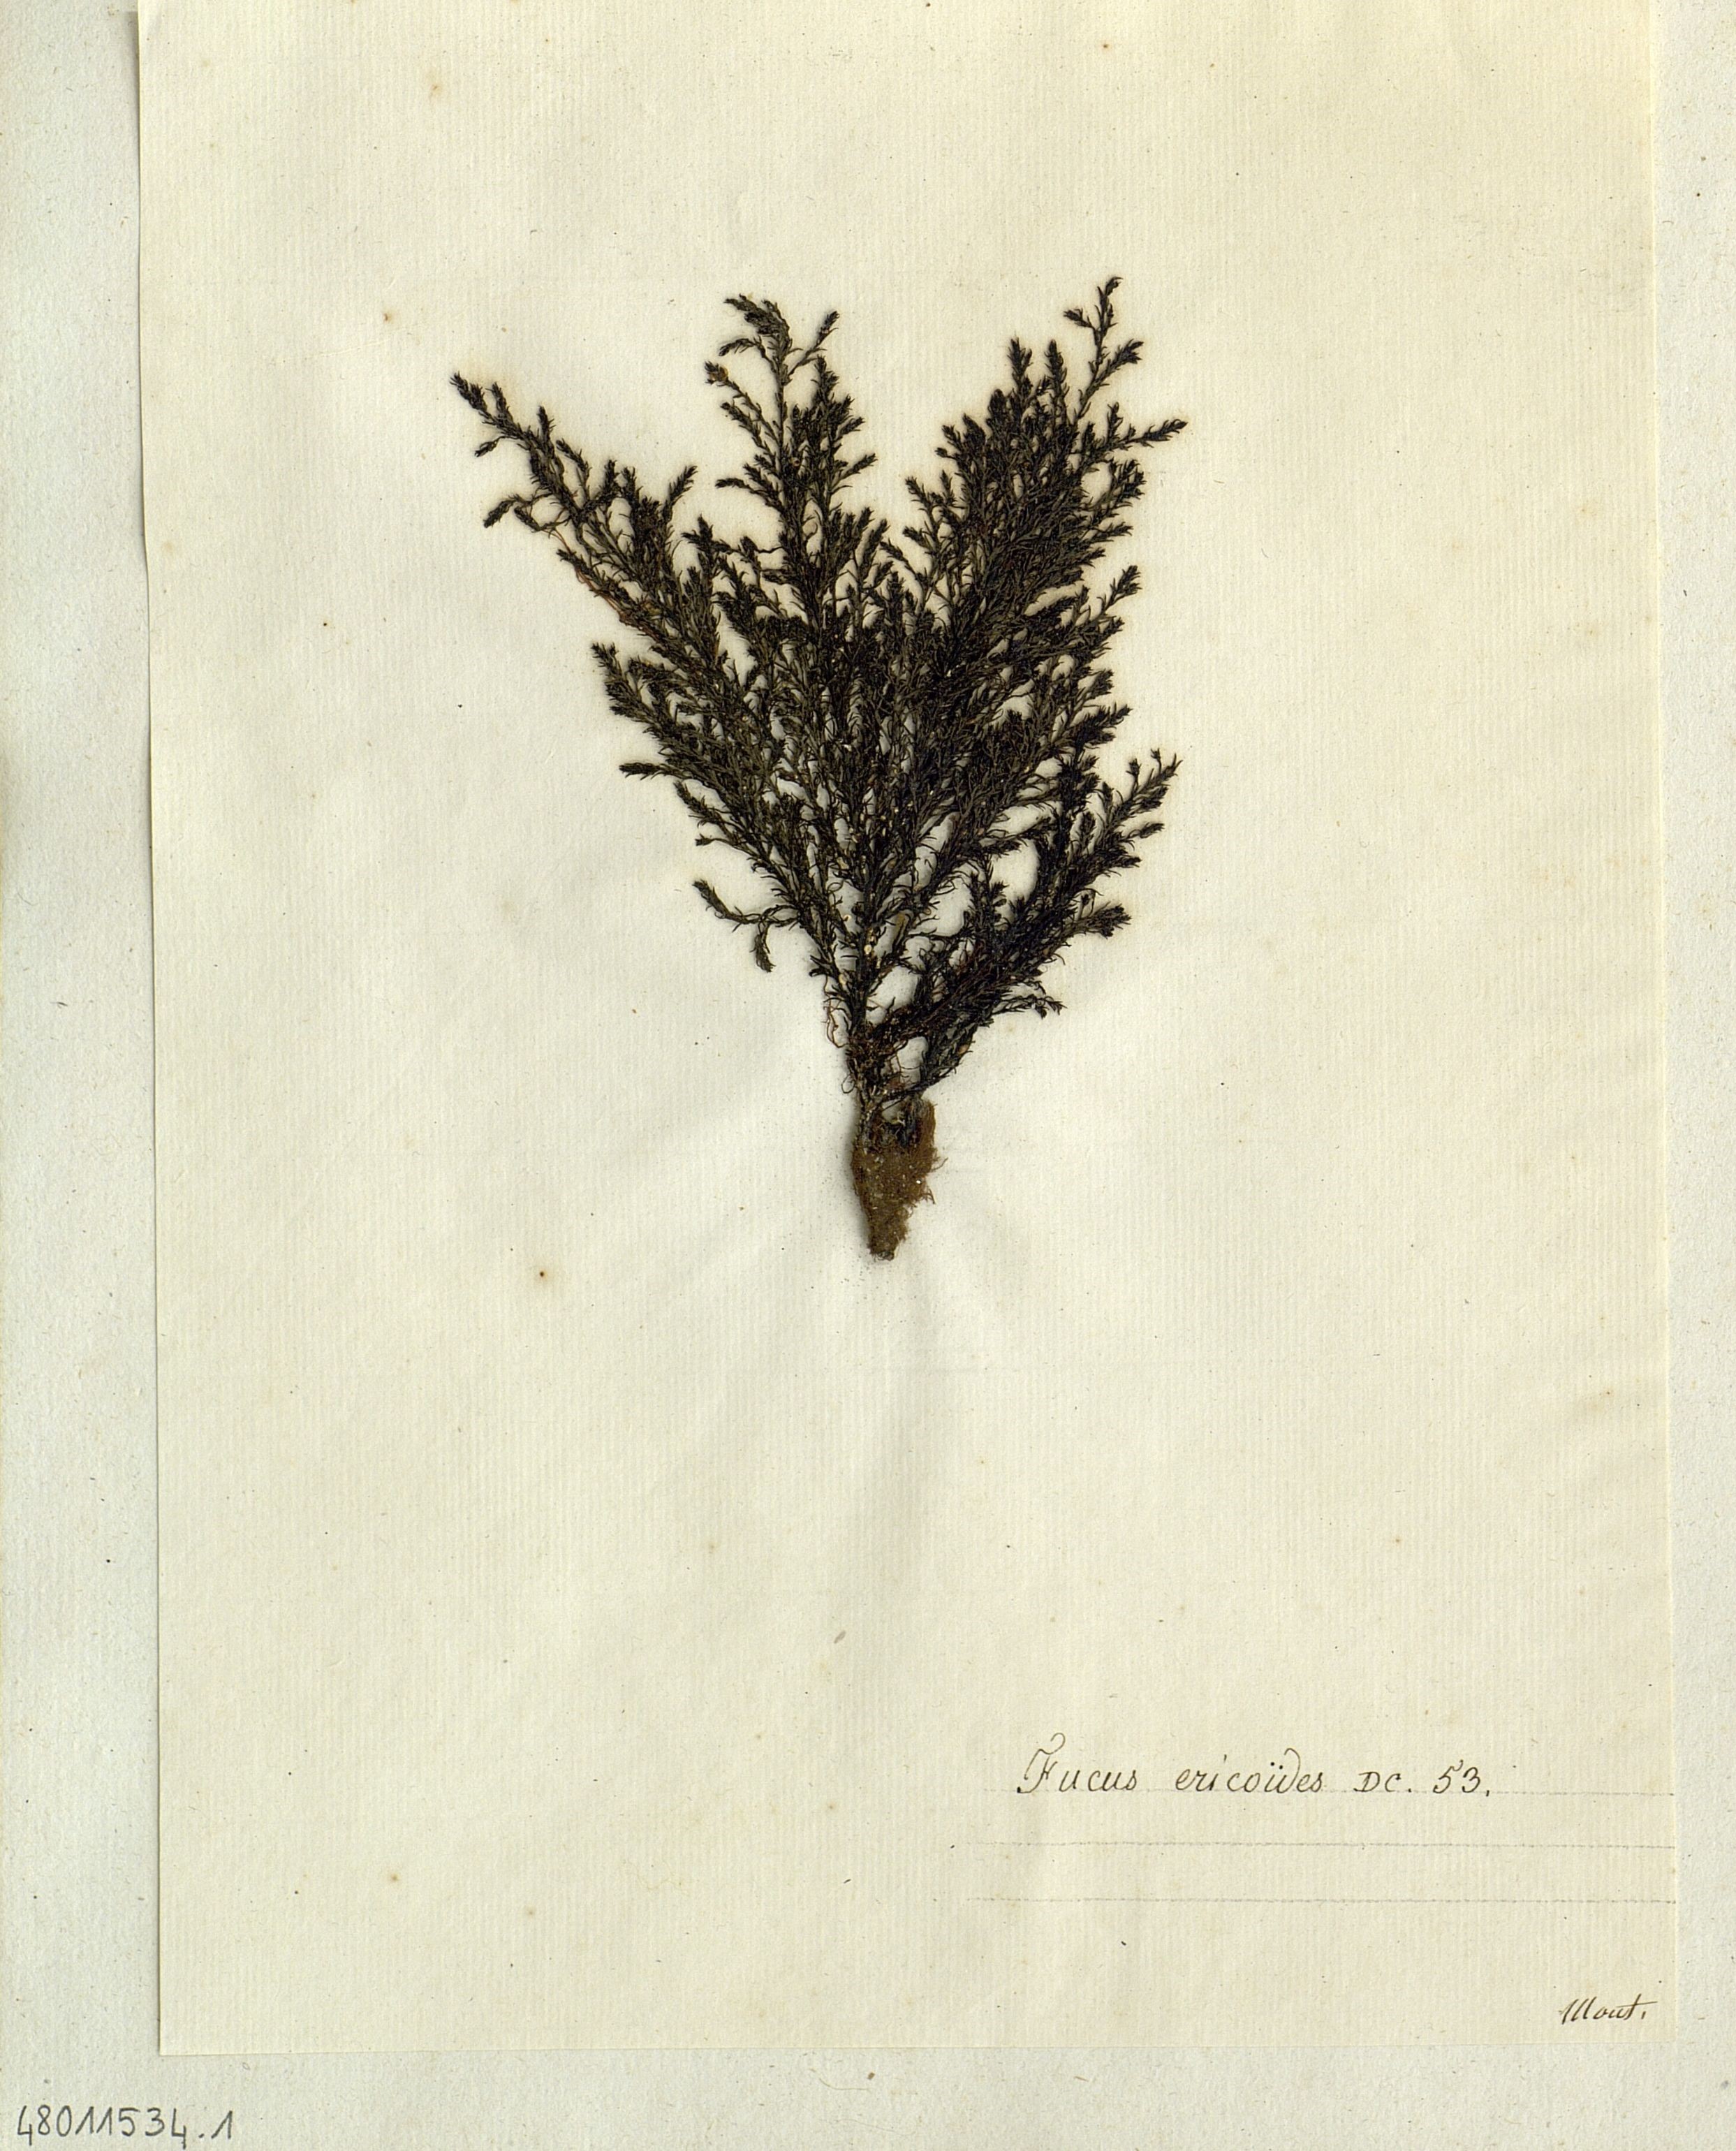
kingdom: Chromista
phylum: Ochrophyta
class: Phaeophyceae
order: Fucales
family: Sargassaceae
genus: Cystoseira
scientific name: Cystoseira Ericaria selaginoides
